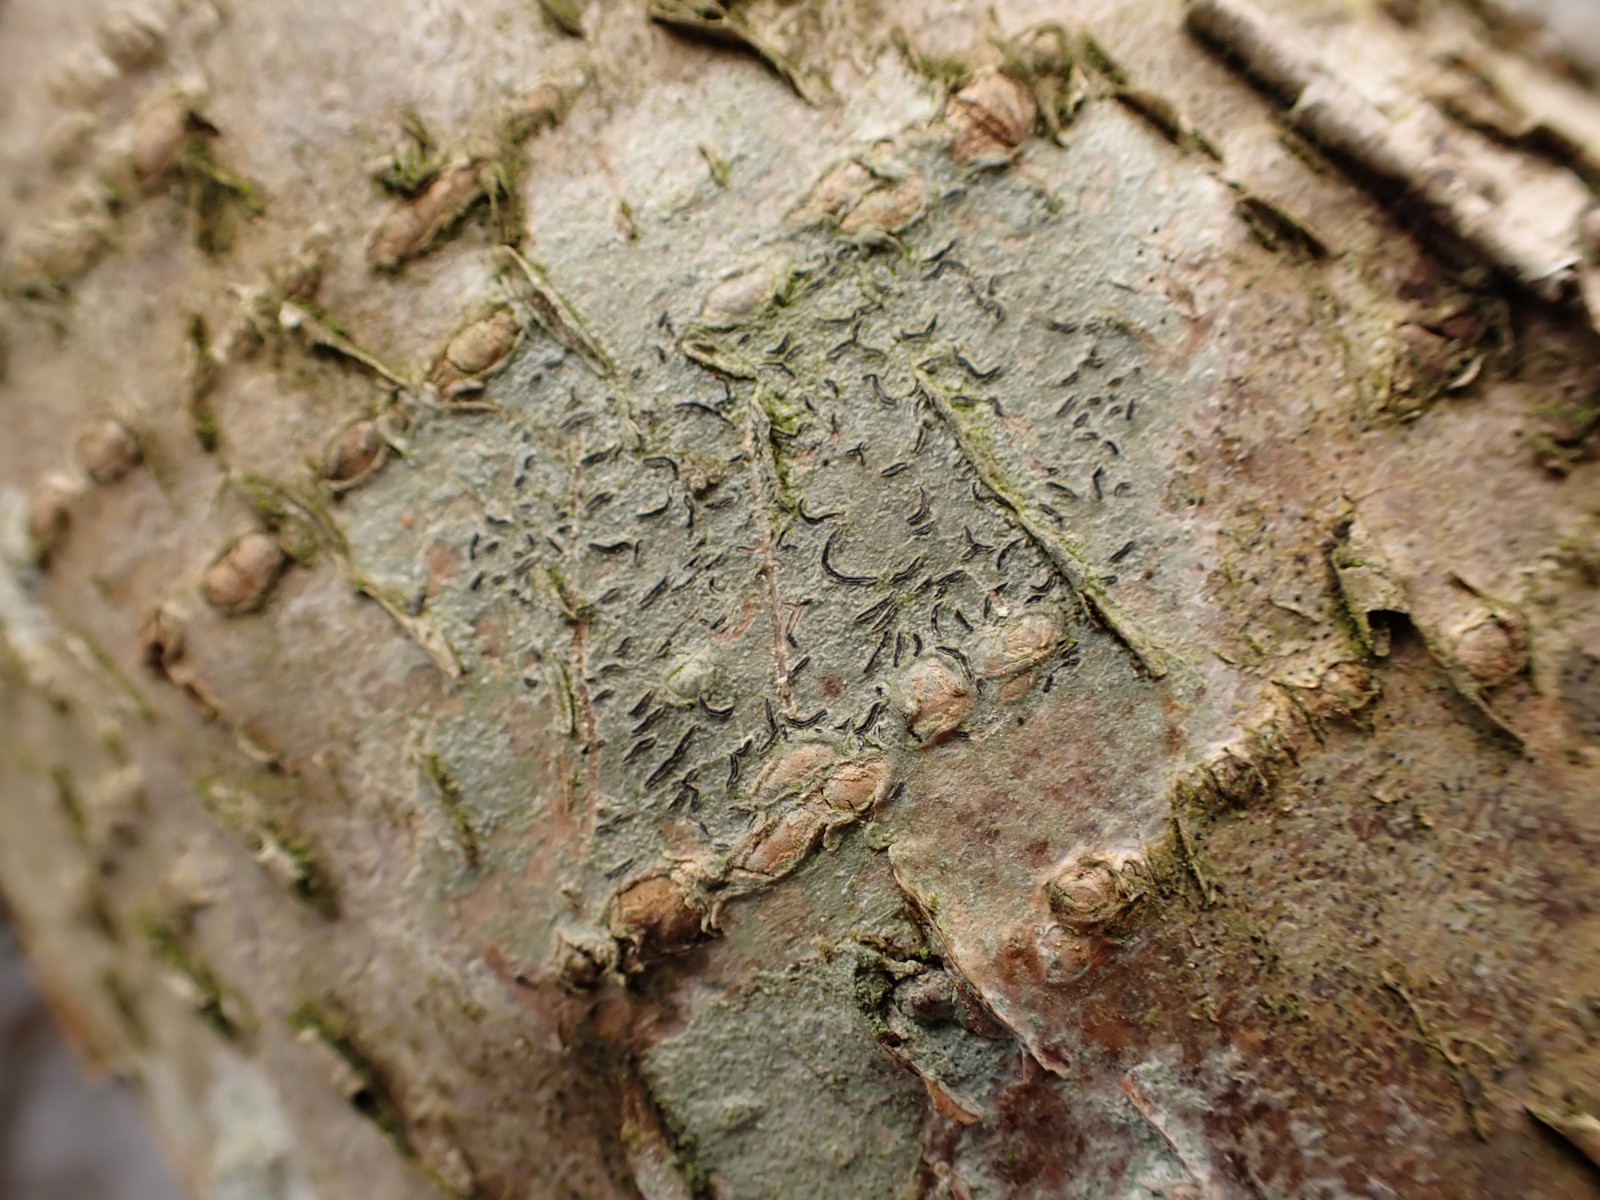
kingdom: Fungi
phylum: Ascomycota
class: Lecanoromycetes
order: Ostropales
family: Graphidaceae
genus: Graphis
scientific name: Graphis scripta
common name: almindelig skriftlav
